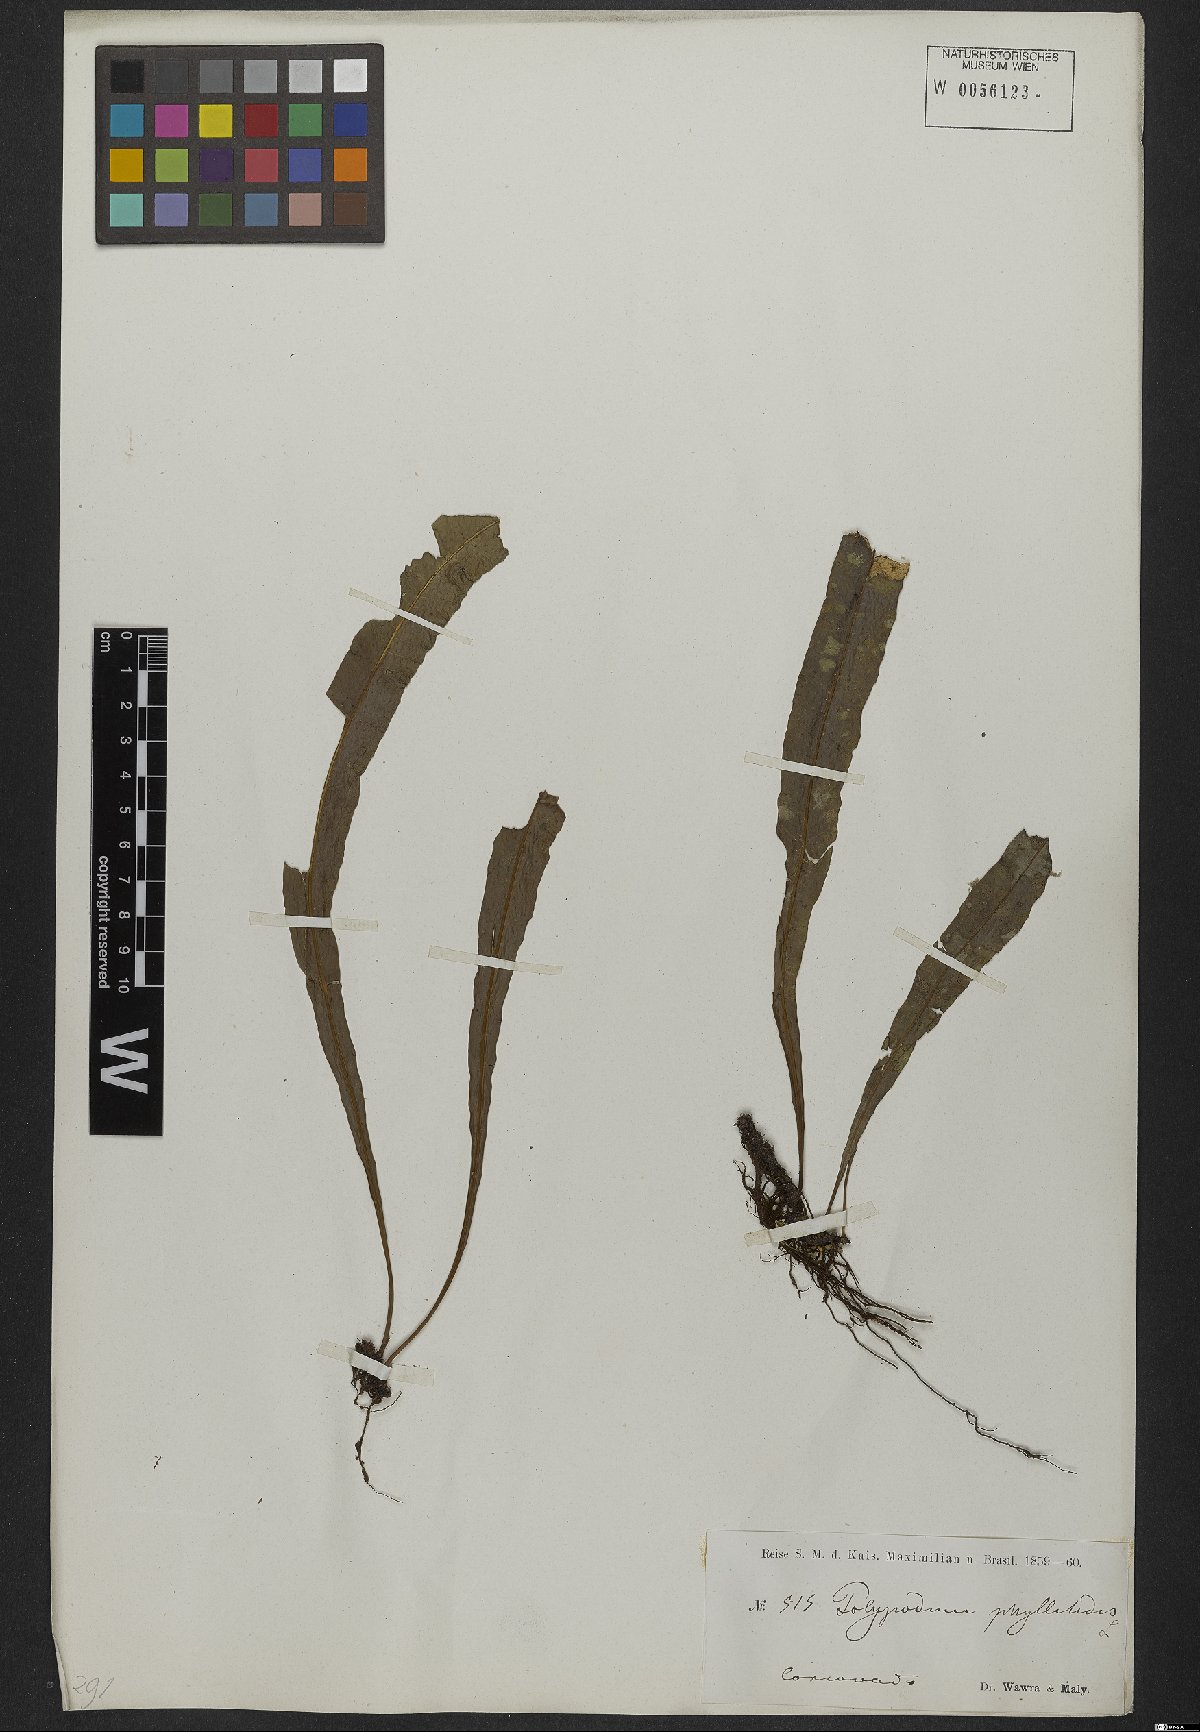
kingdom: Plantae
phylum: Tracheophyta
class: Polypodiopsida
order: Polypodiales
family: Polypodiaceae
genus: Campyloneurum
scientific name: Campyloneurum phyllitidis
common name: Cow-tongue fern
